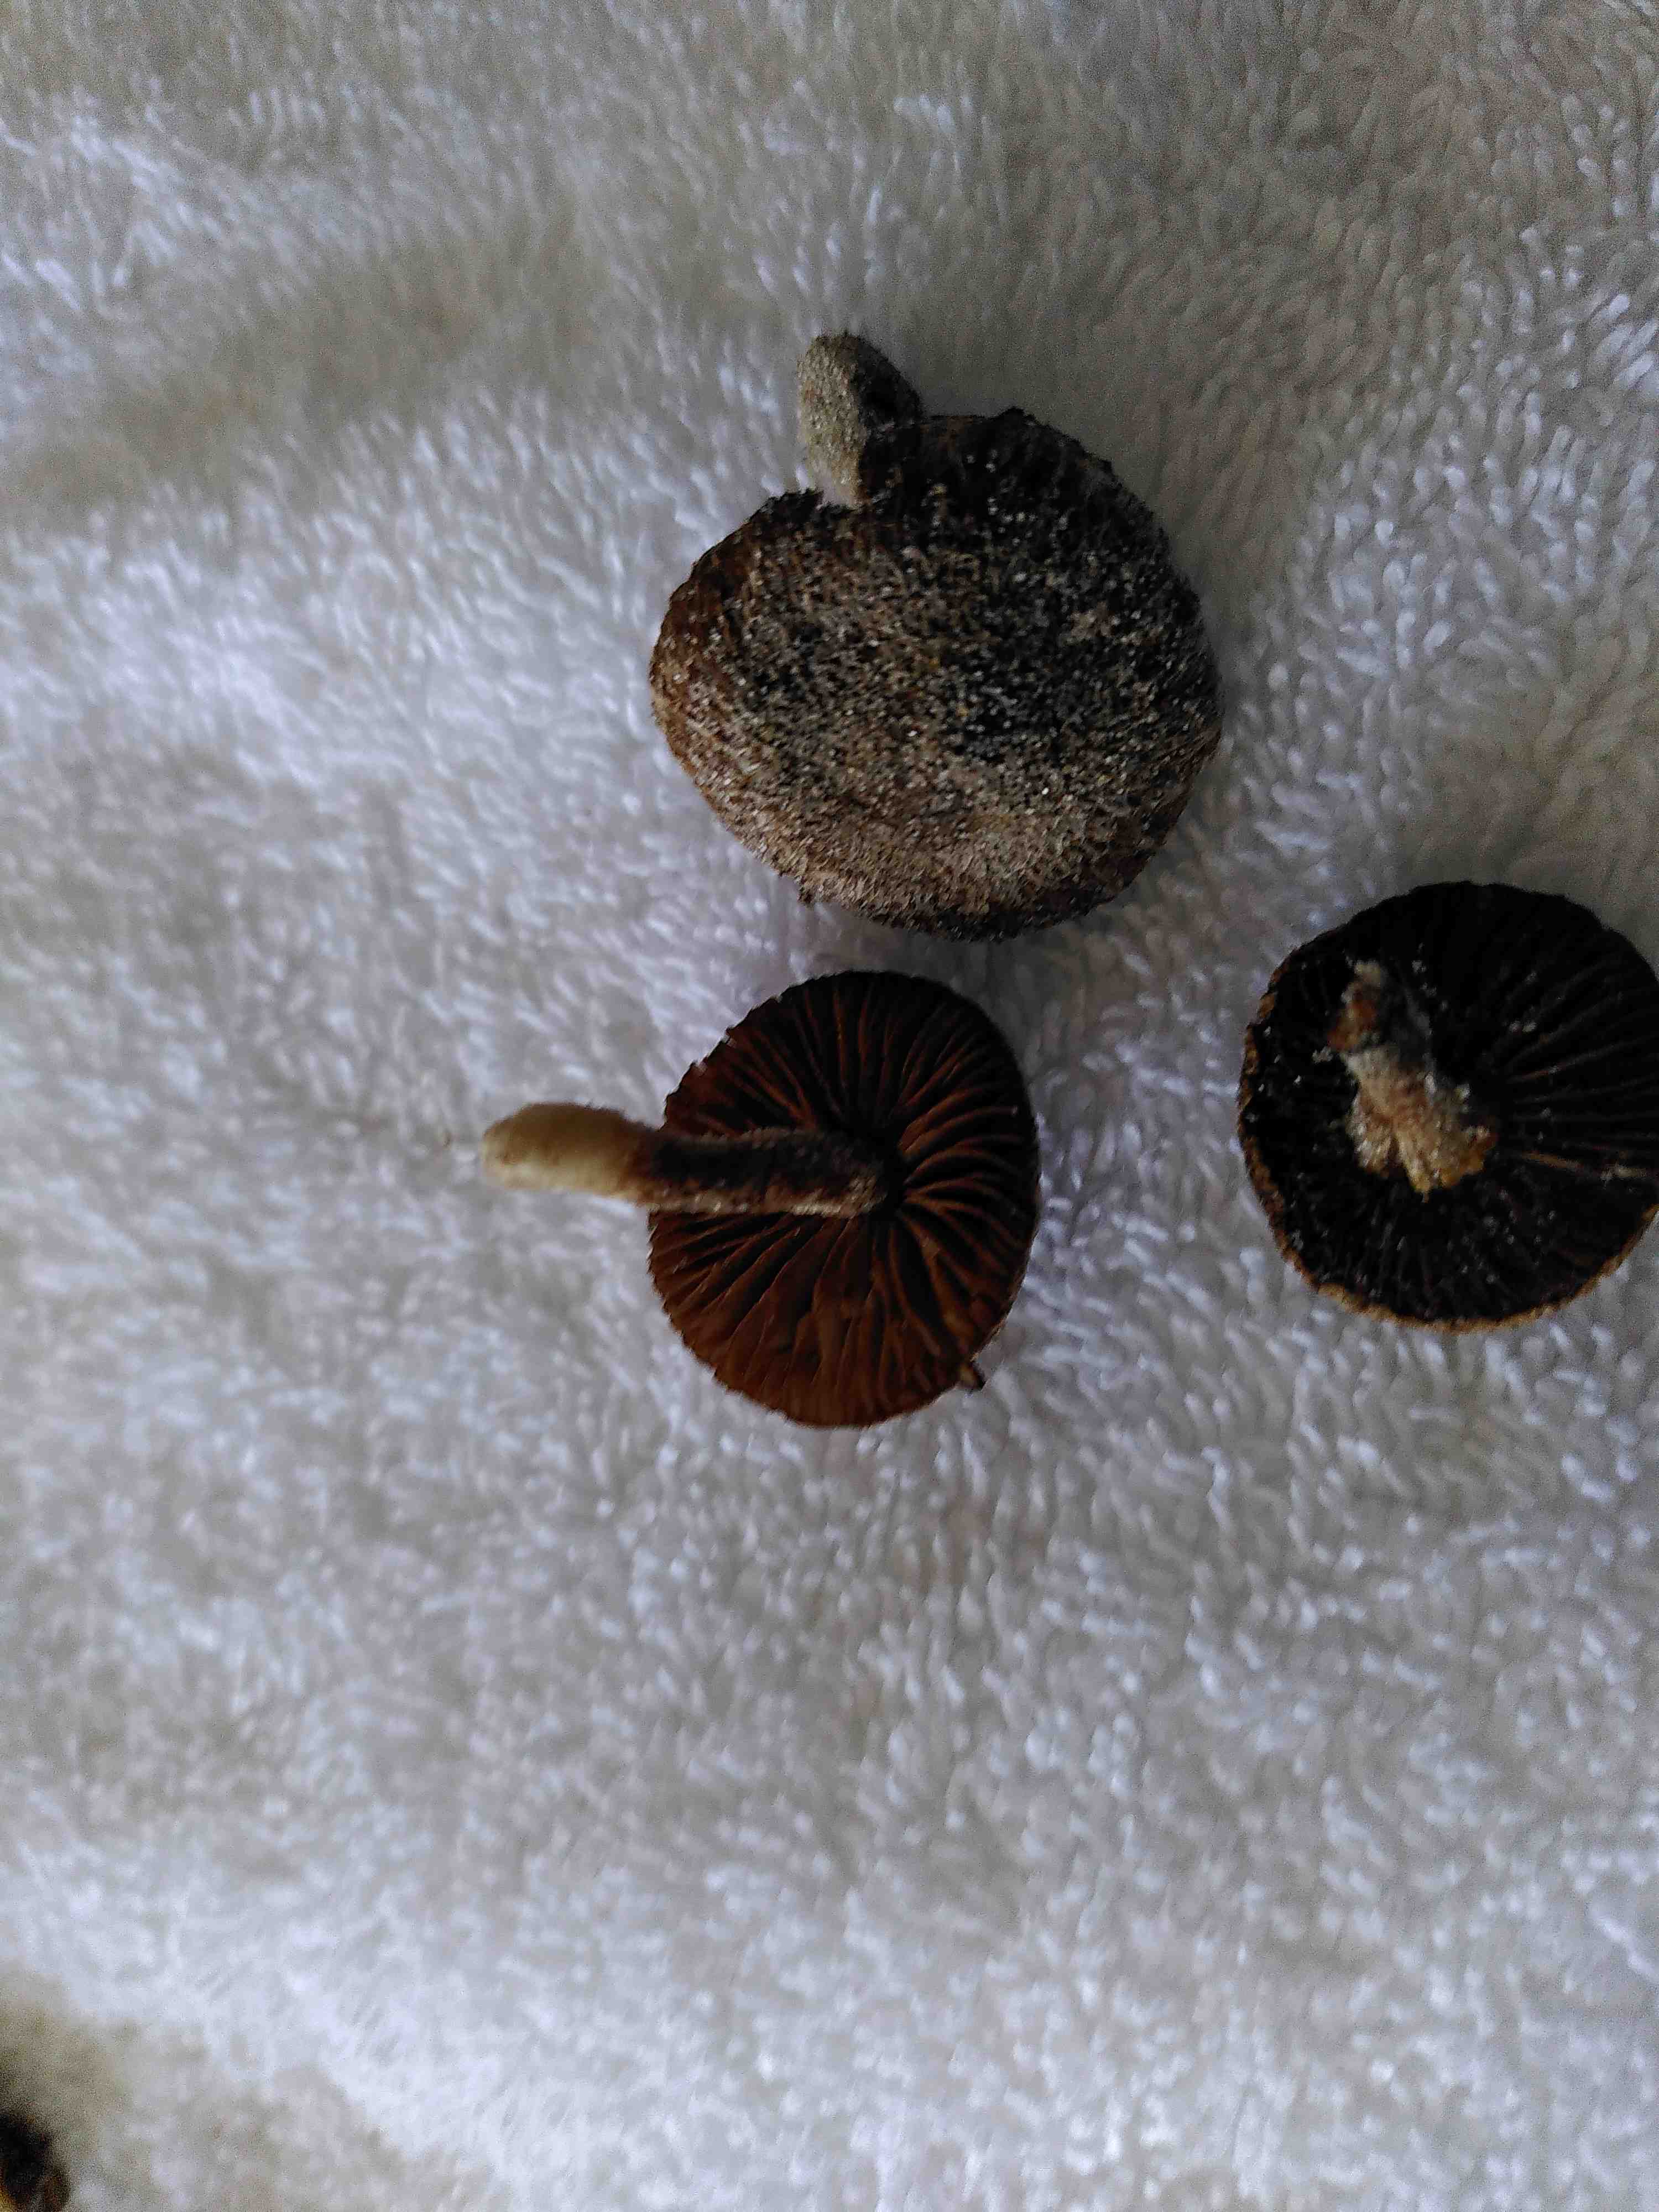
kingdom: Fungi
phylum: Basidiomycota
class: Agaricomycetes
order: Agaricales
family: Inocybaceae
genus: Inocybe
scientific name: Inocybe
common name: trævlhat
